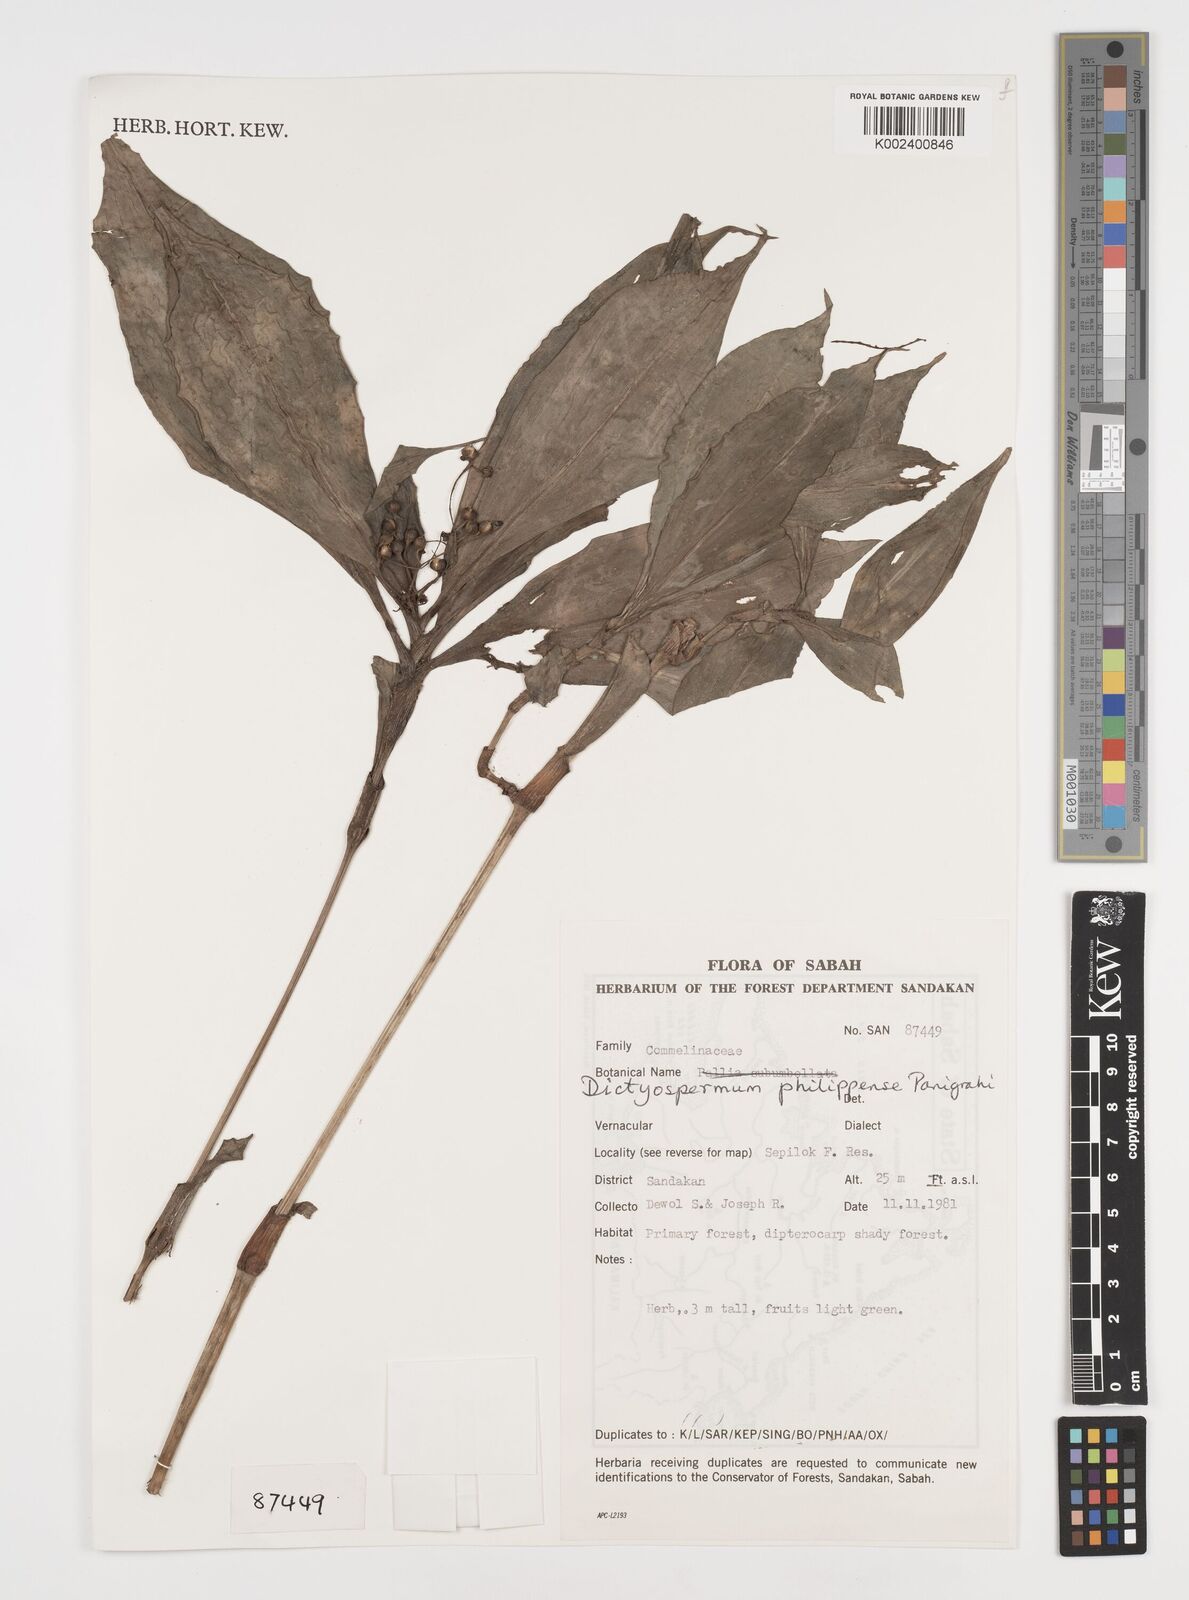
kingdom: Plantae
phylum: Tracheophyta
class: Liliopsida
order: Commelinales
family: Commelinaceae
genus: Tricarpelema
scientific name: Tricarpelema philippense
